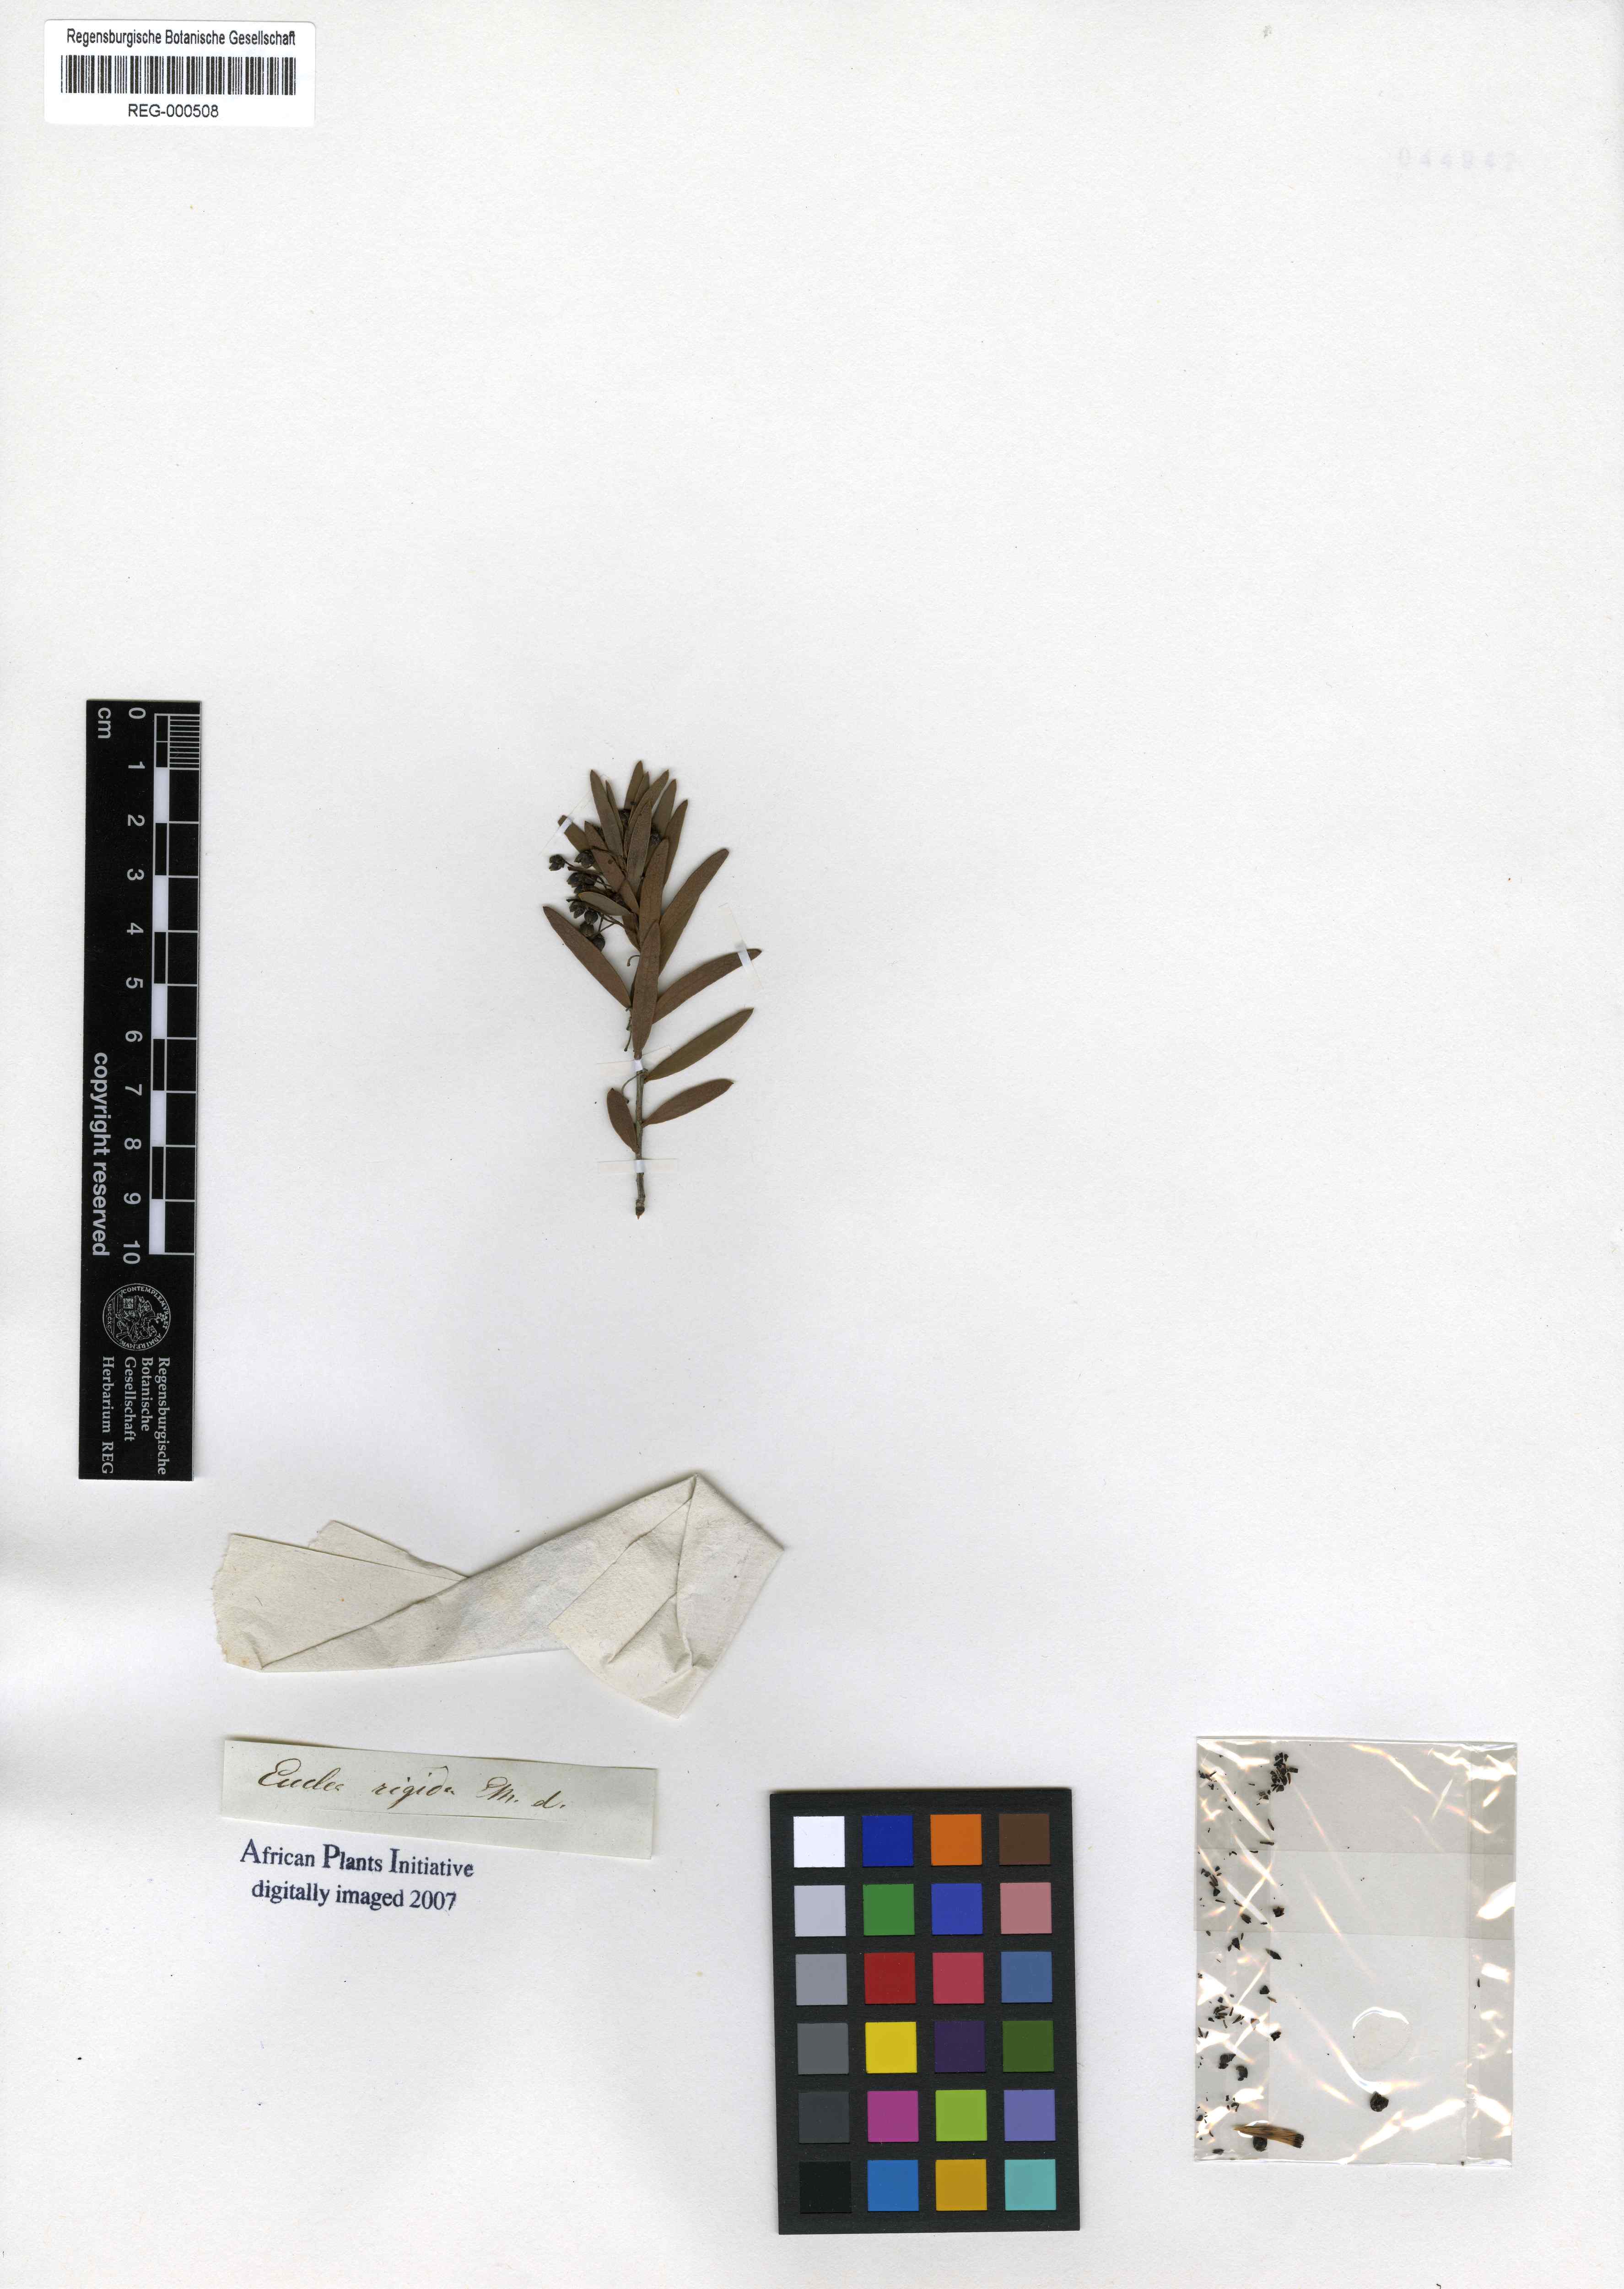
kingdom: Plantae
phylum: Tracheophyta
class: Magnoliopsida
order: Ericales
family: Ebenaceae
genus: Euclea
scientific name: Euclea lancea
